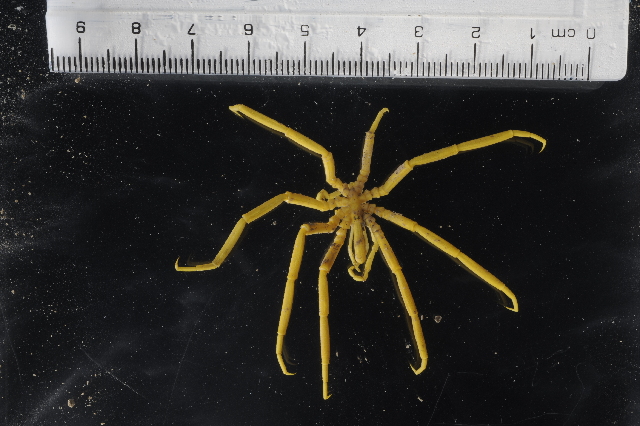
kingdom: Animalia
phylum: Arthropoda
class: Pycnogonida
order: Pantopoda
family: Colossendeidae
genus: Colossendeis
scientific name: Colossendeis bouvetensis
